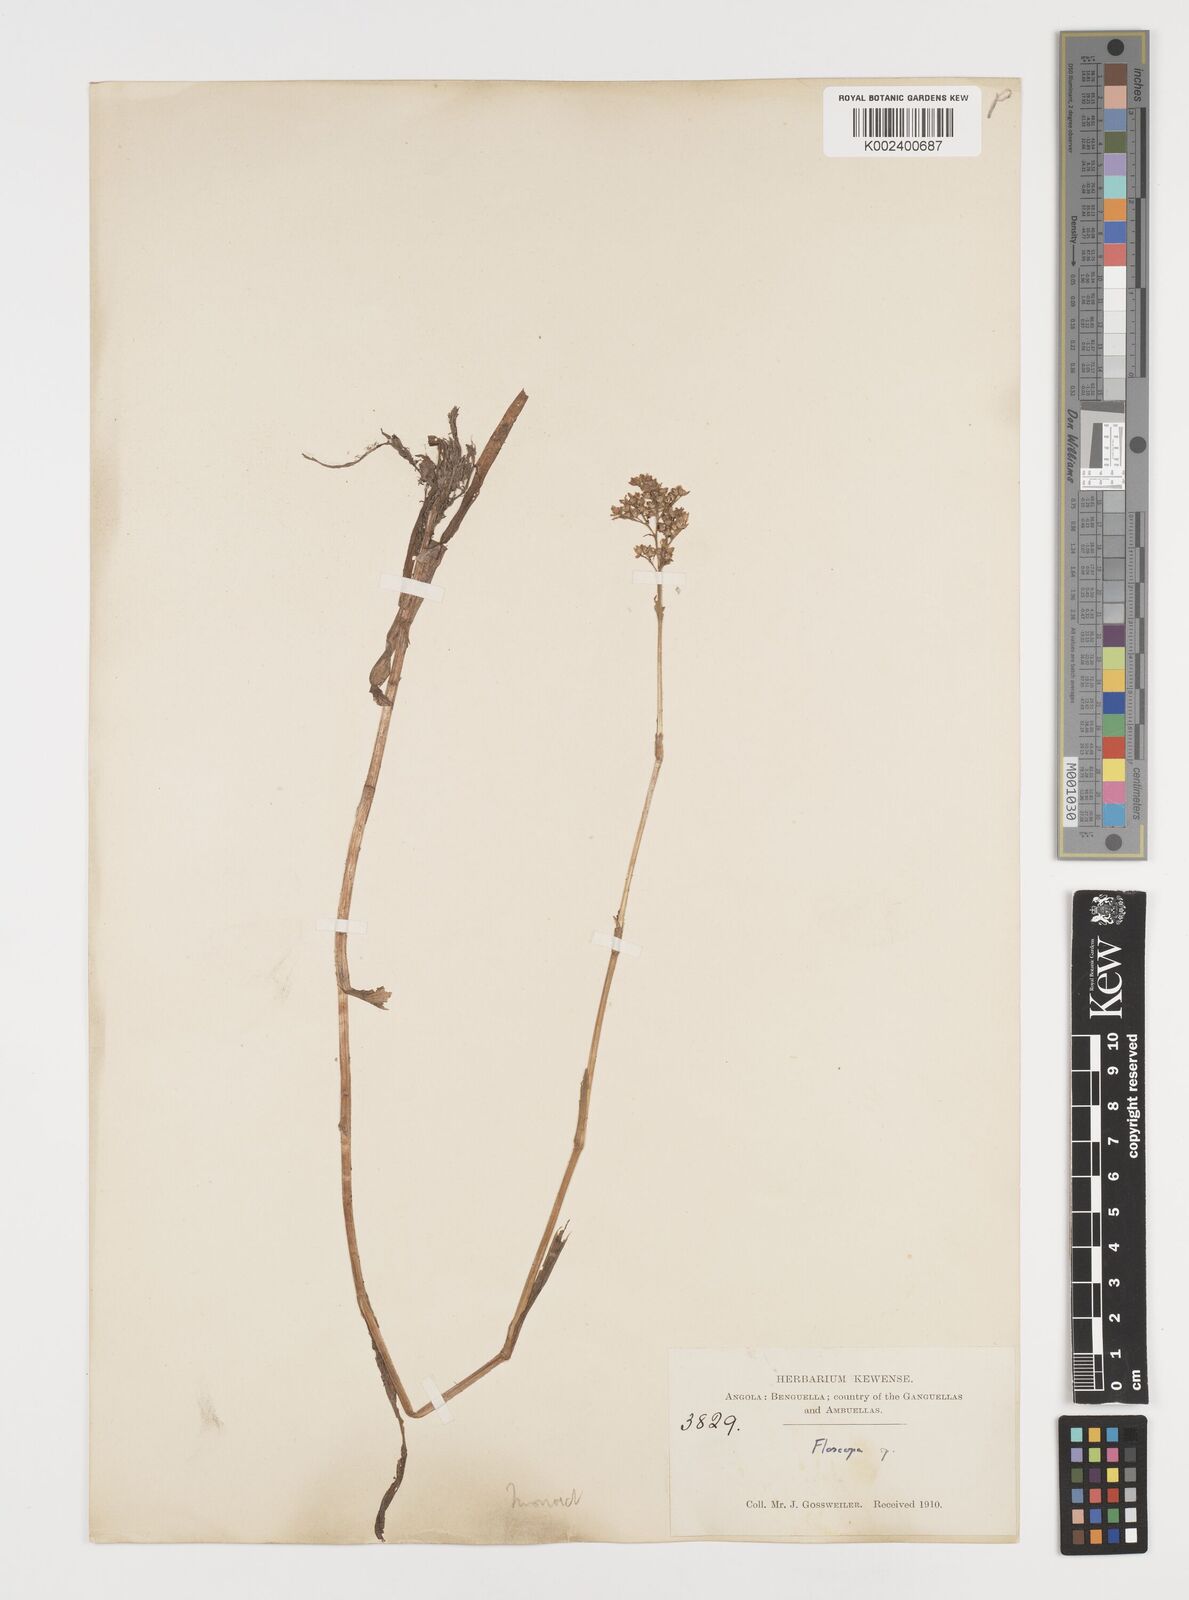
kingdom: Plantae
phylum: Tracheophyta
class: Liliopsida
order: Commelinales
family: Commelinaceae
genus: Floscopa
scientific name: Floscopa
